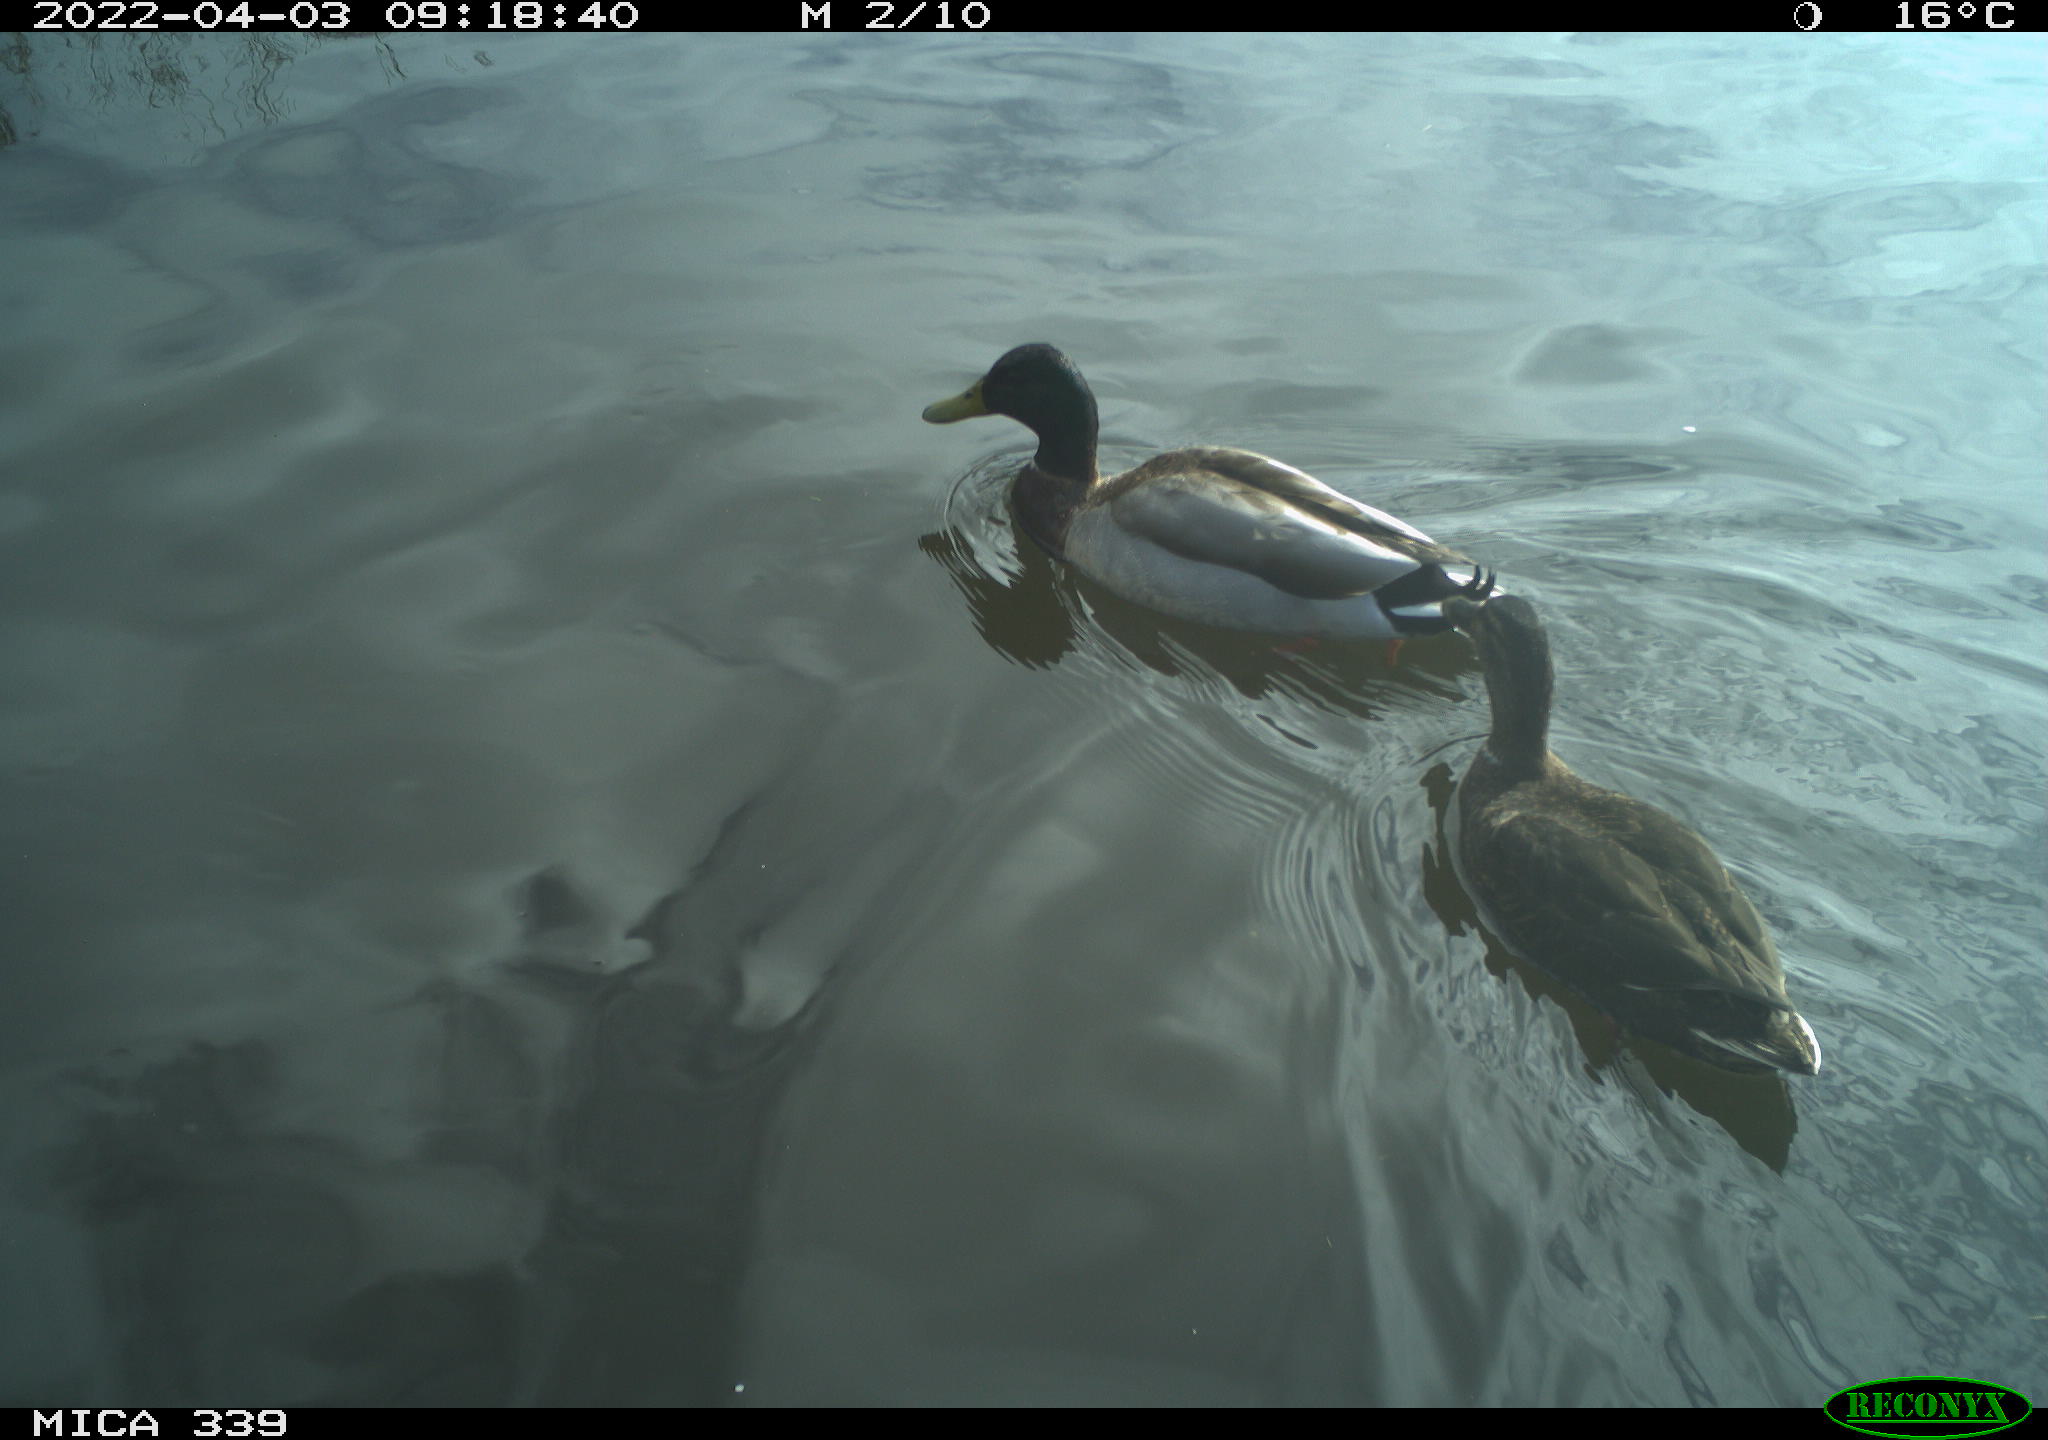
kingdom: Animalia
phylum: Chordata
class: Aves
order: Anseriformes
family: Anatidae
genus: Anas
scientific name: Anas platyrhynchos
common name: Mallard
